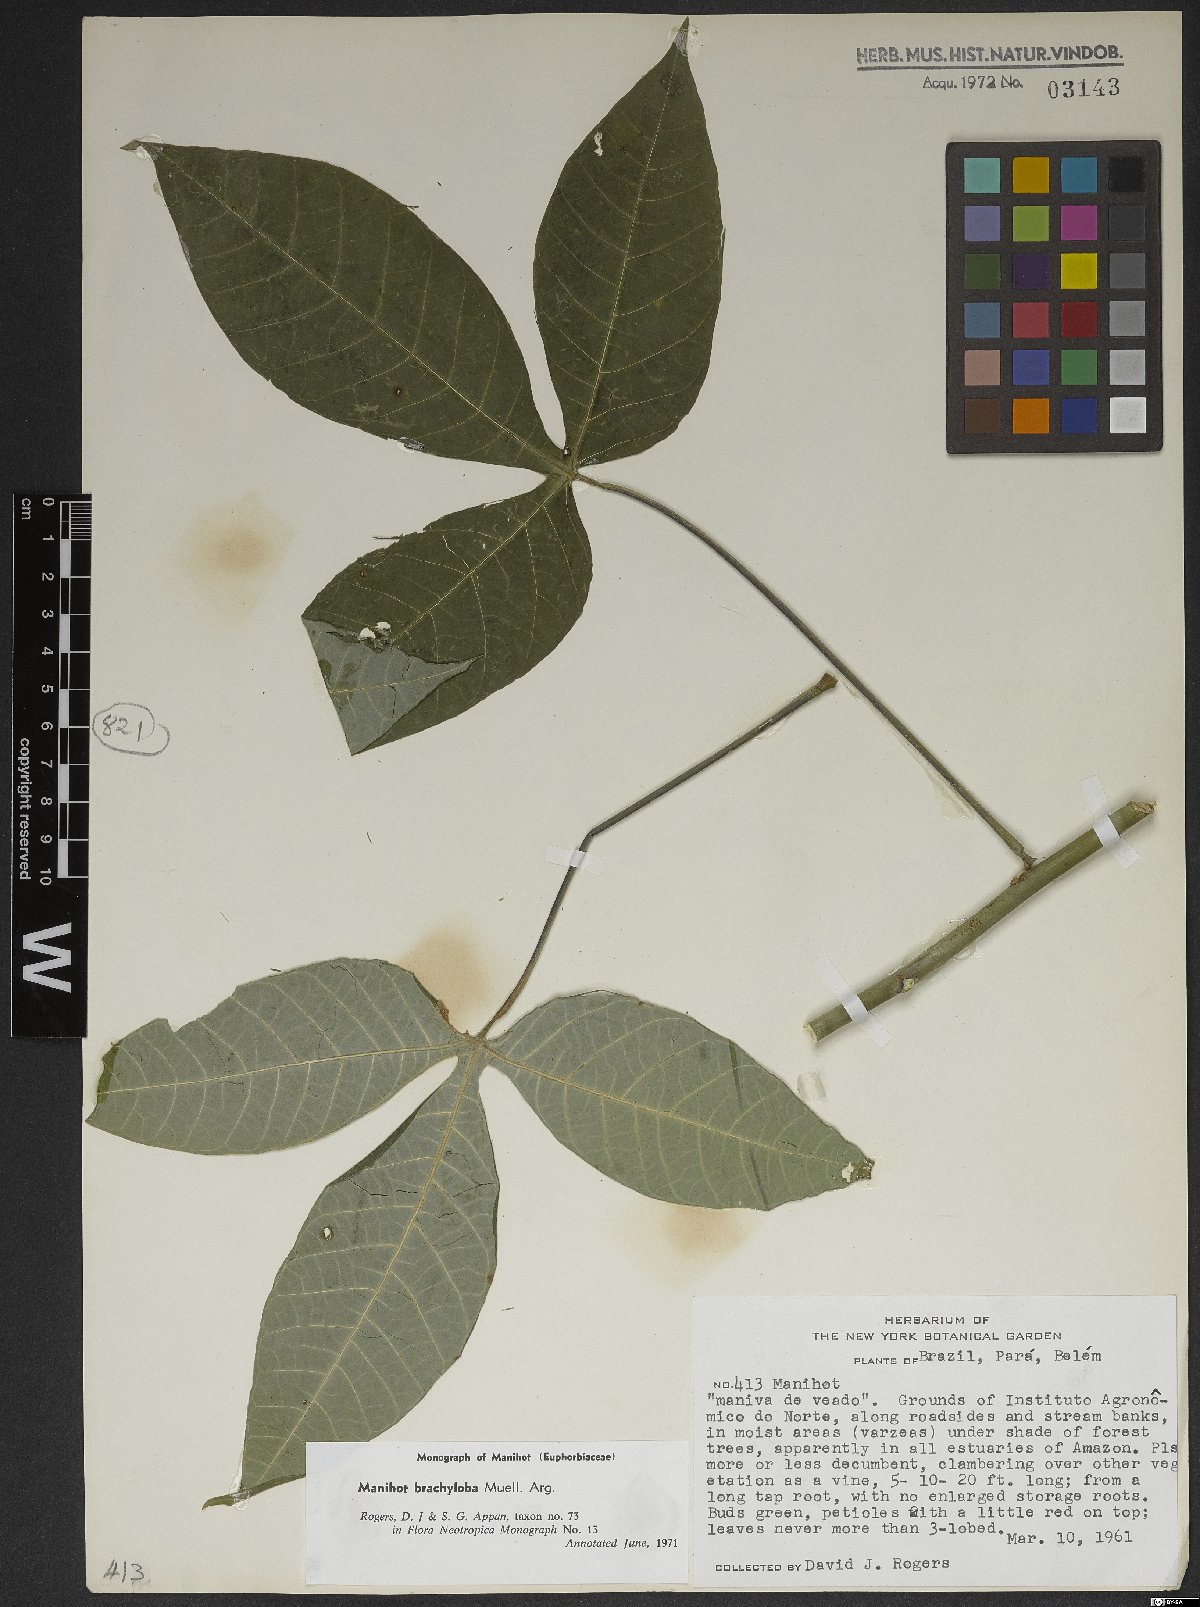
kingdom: Plantae
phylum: Tracheophyta
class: Magnoliopsida
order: Malpighiales
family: Euphorbiaceae
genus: Manihot
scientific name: Manihot brachyloba
